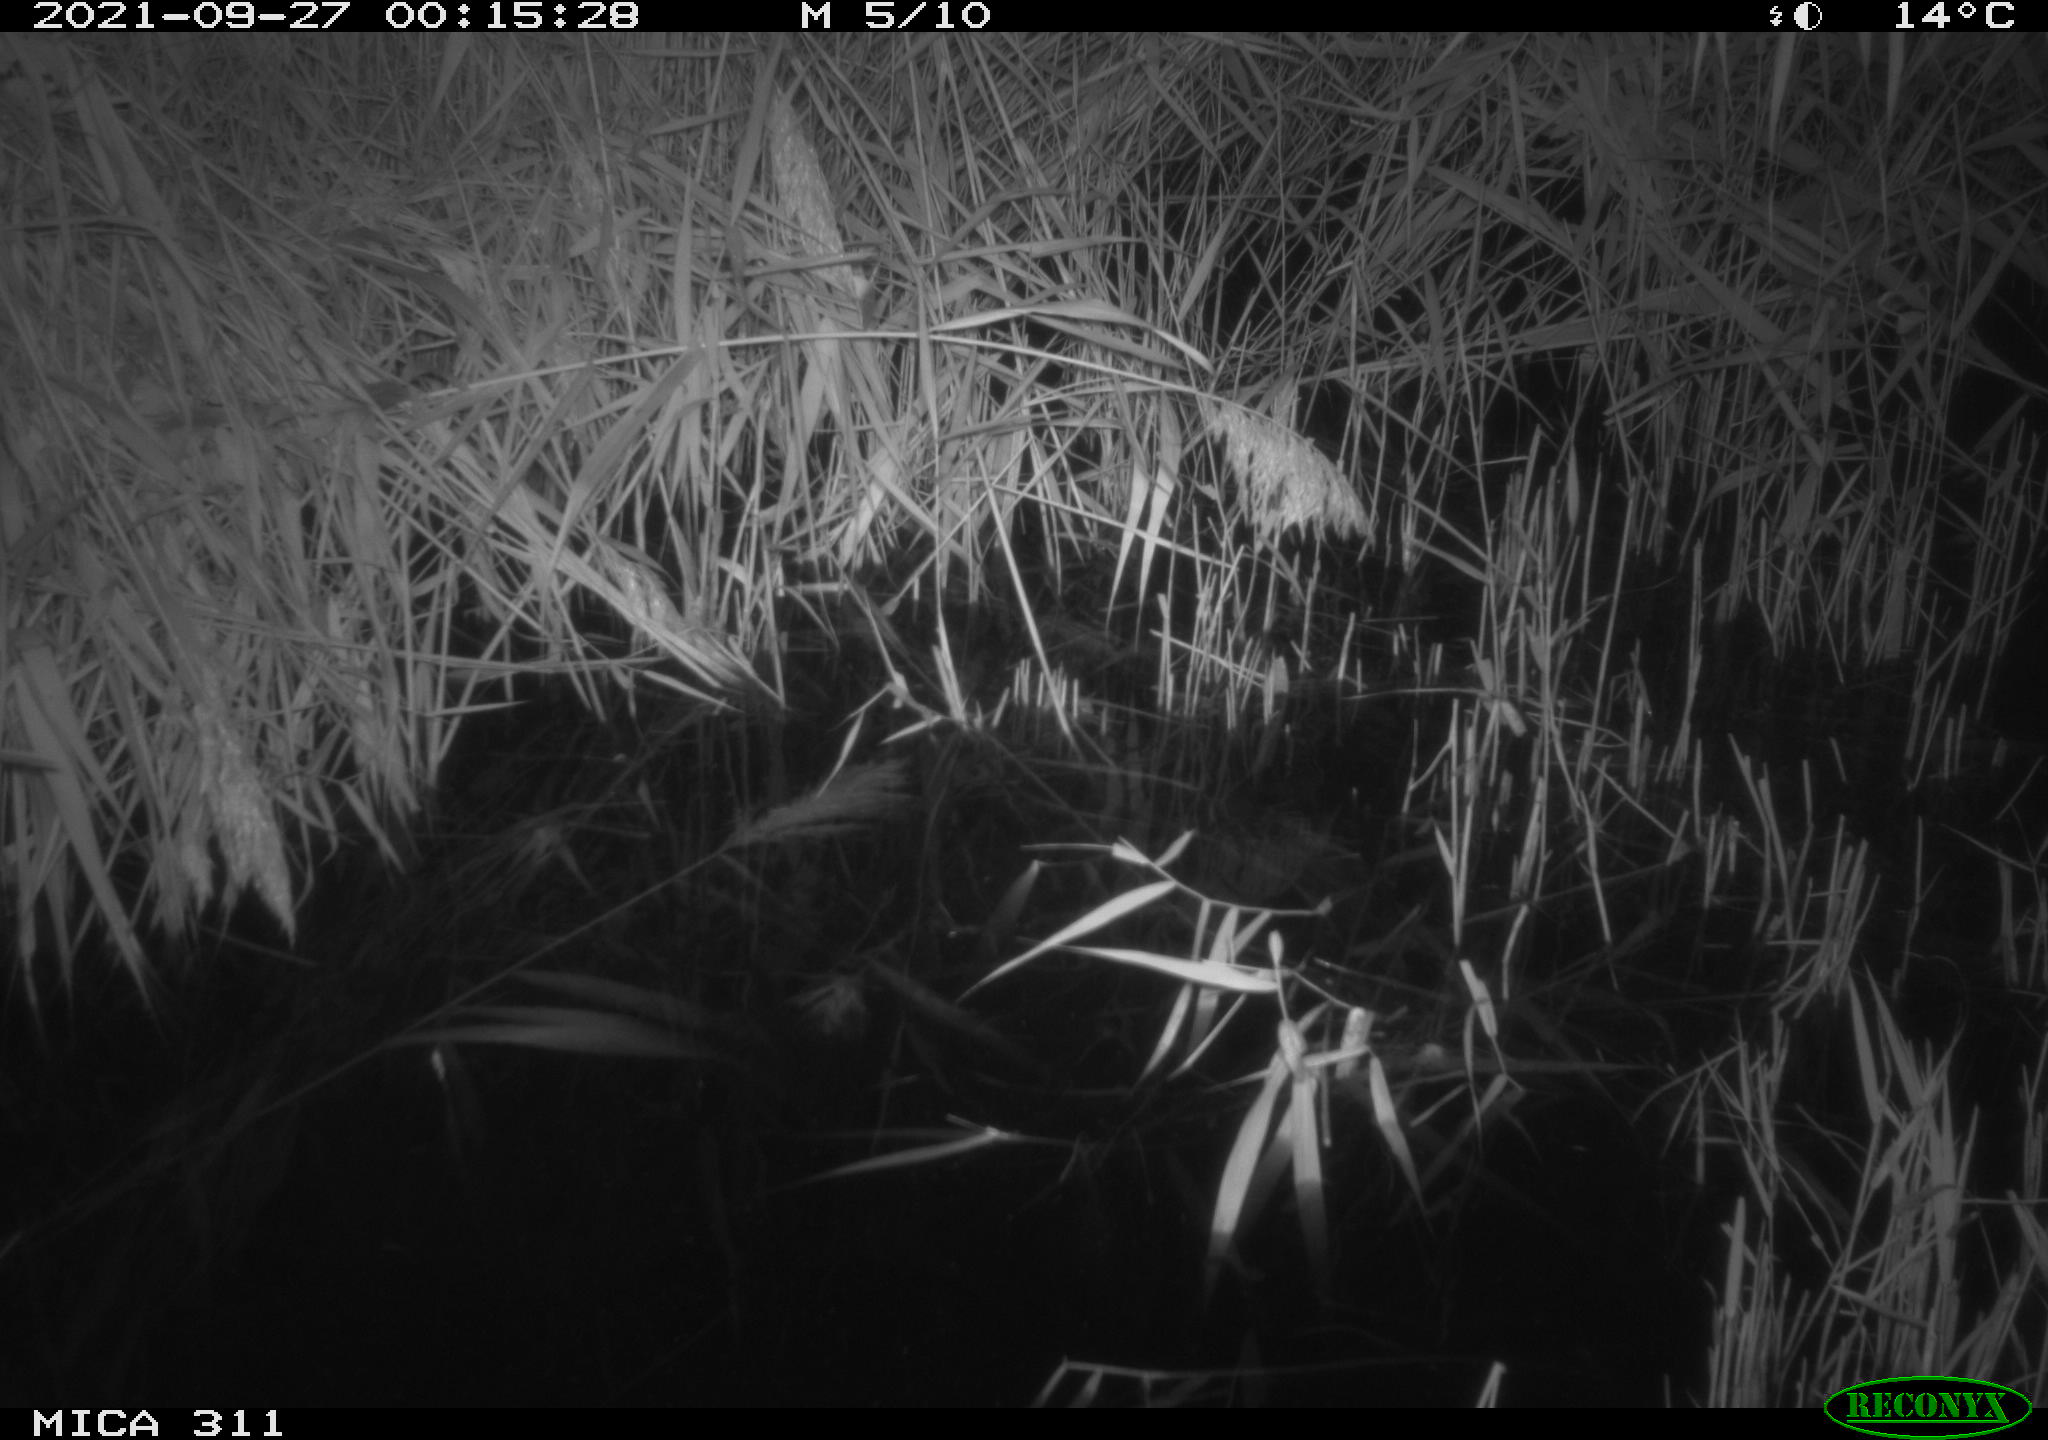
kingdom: Animalia
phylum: Chordata
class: Mammalia
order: Rodentia
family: Muridae
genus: Rattus
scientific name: Rattus norvegicus
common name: Brown rat
